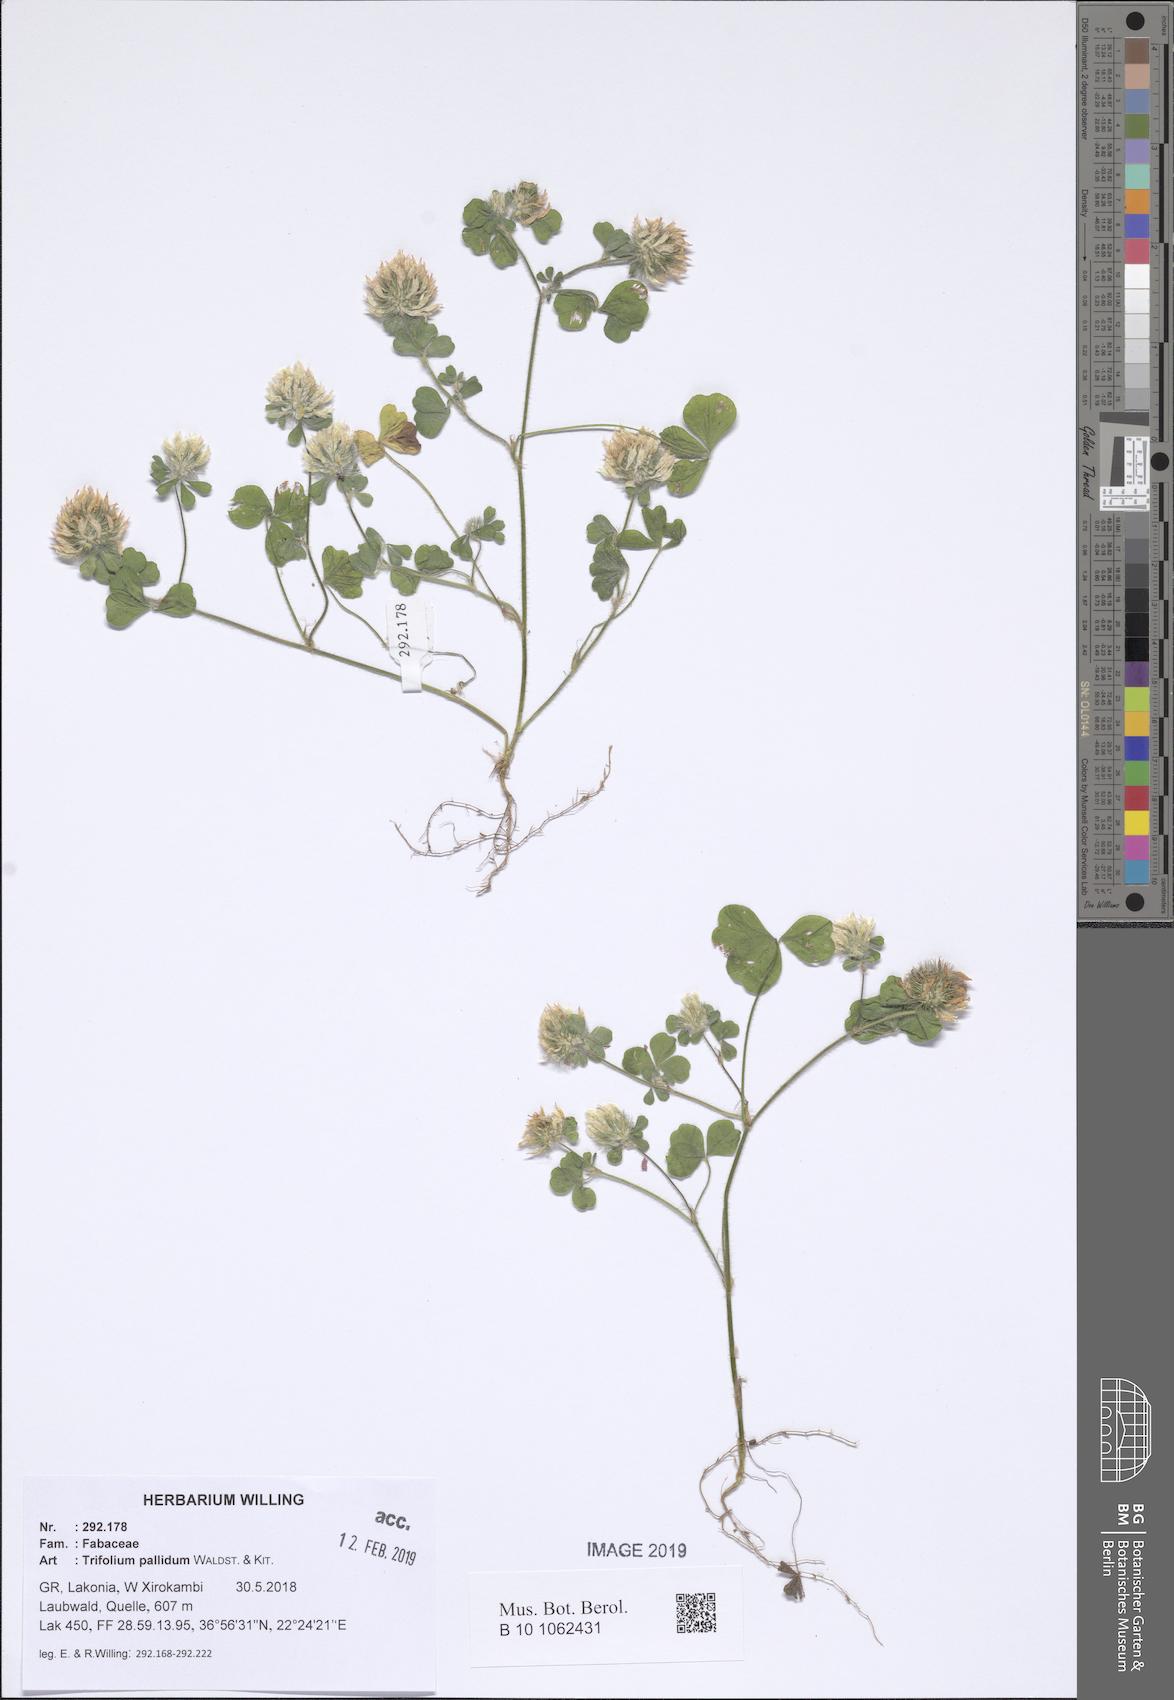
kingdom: Plantae
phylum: Tracheophyta
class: Magnoliopsida
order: Fabales
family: Fabaceae
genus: Trifolium
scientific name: Trifolium pallidum
